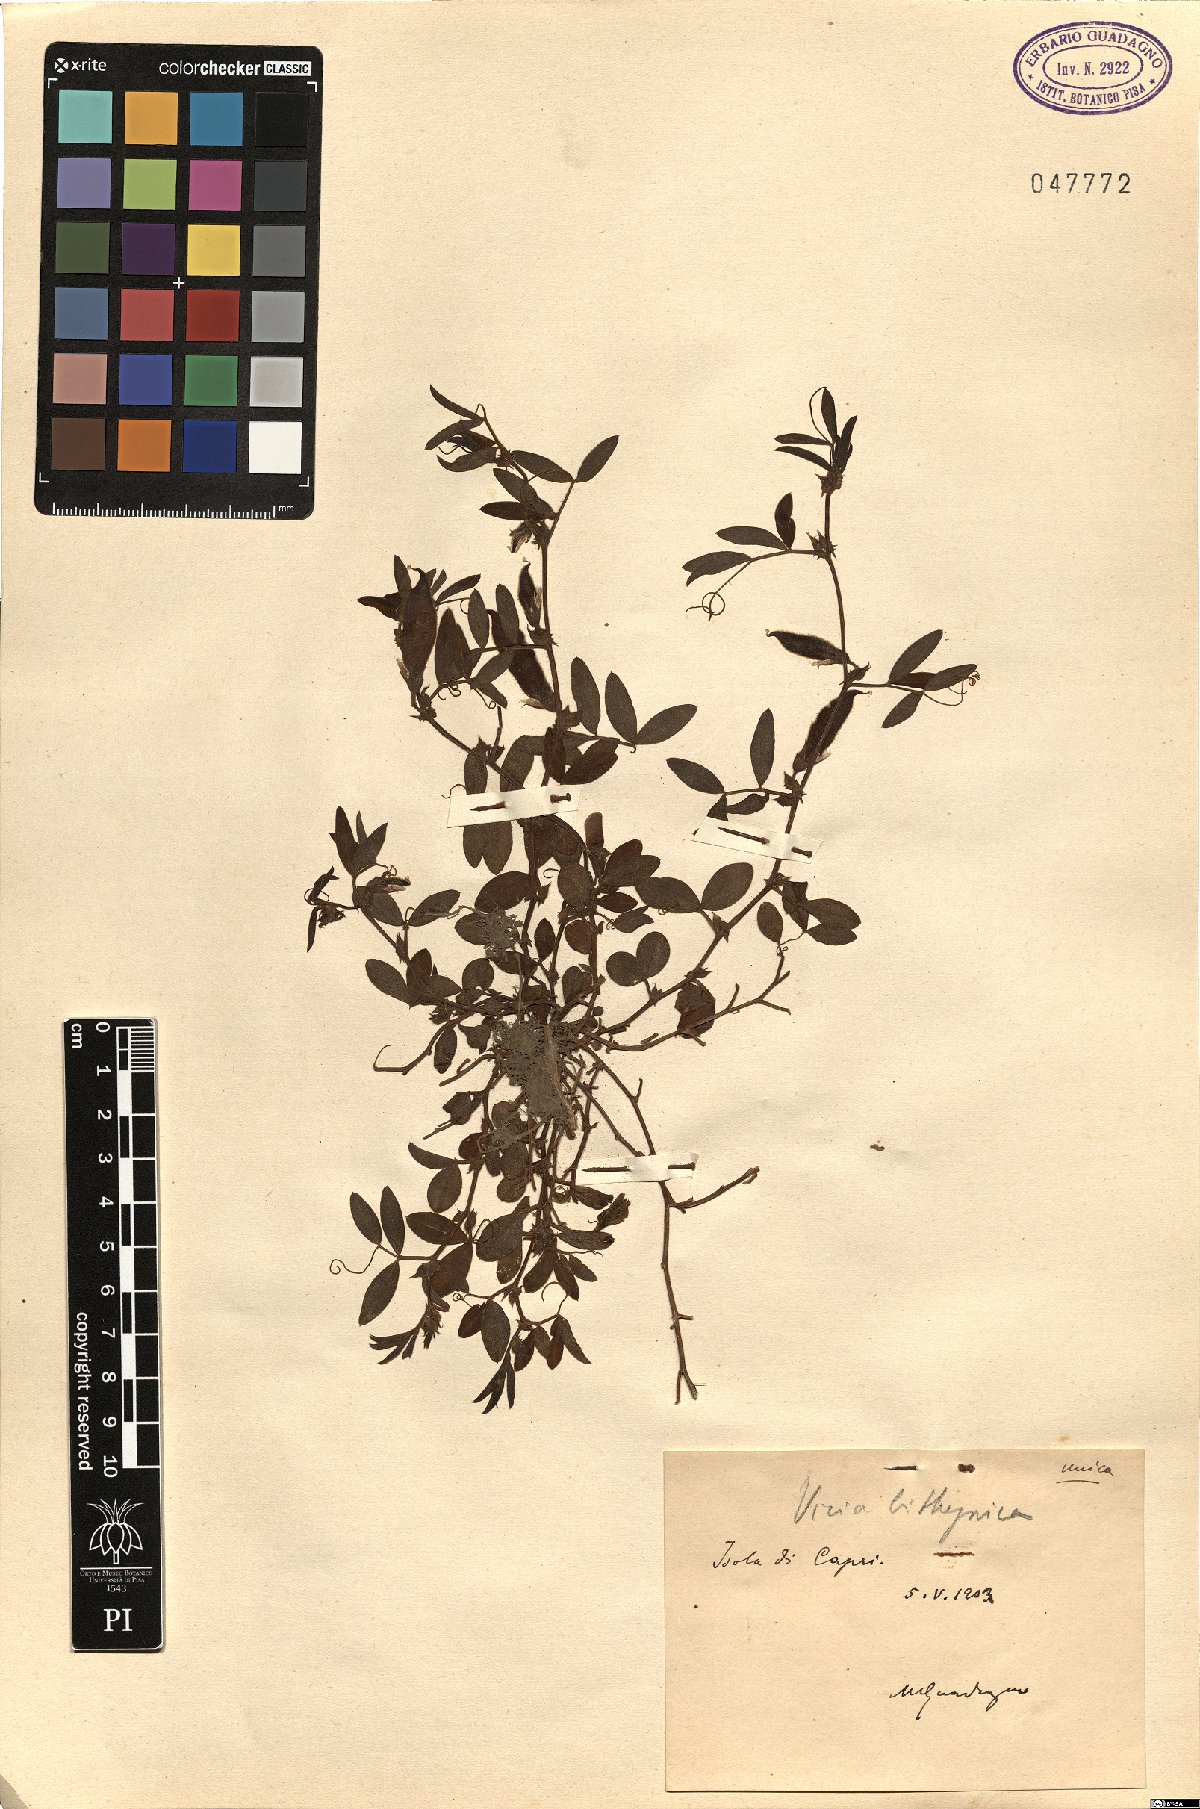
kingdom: Plantae
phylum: Tracheophyta
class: Magnoliopsida
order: Fabales
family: Fabaceae
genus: Vicia
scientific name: Vicia bithynica
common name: Bithynian vetch
